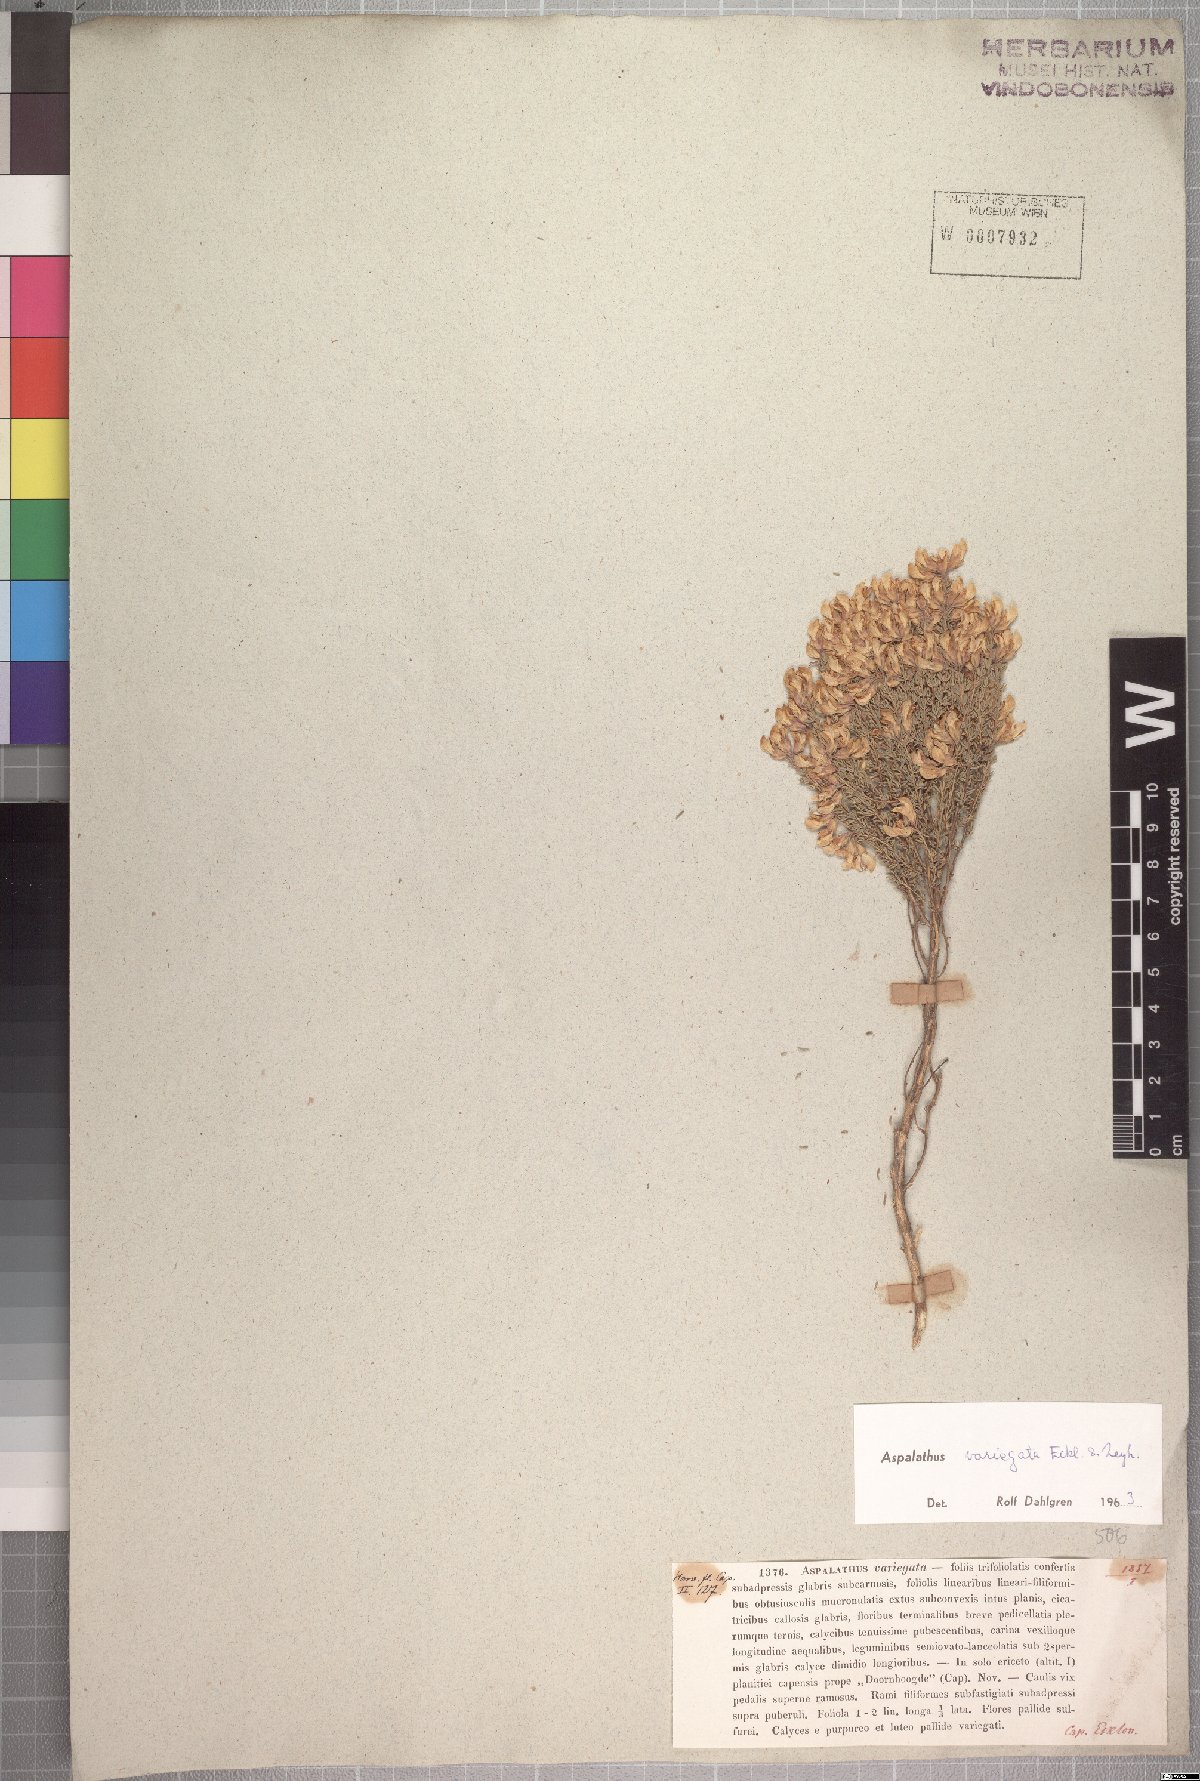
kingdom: Plantae
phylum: Tracheophyta
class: Magnoliopsida
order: Fabales
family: Fabaceae
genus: Aspalathus
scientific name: Aspalathus variegata
